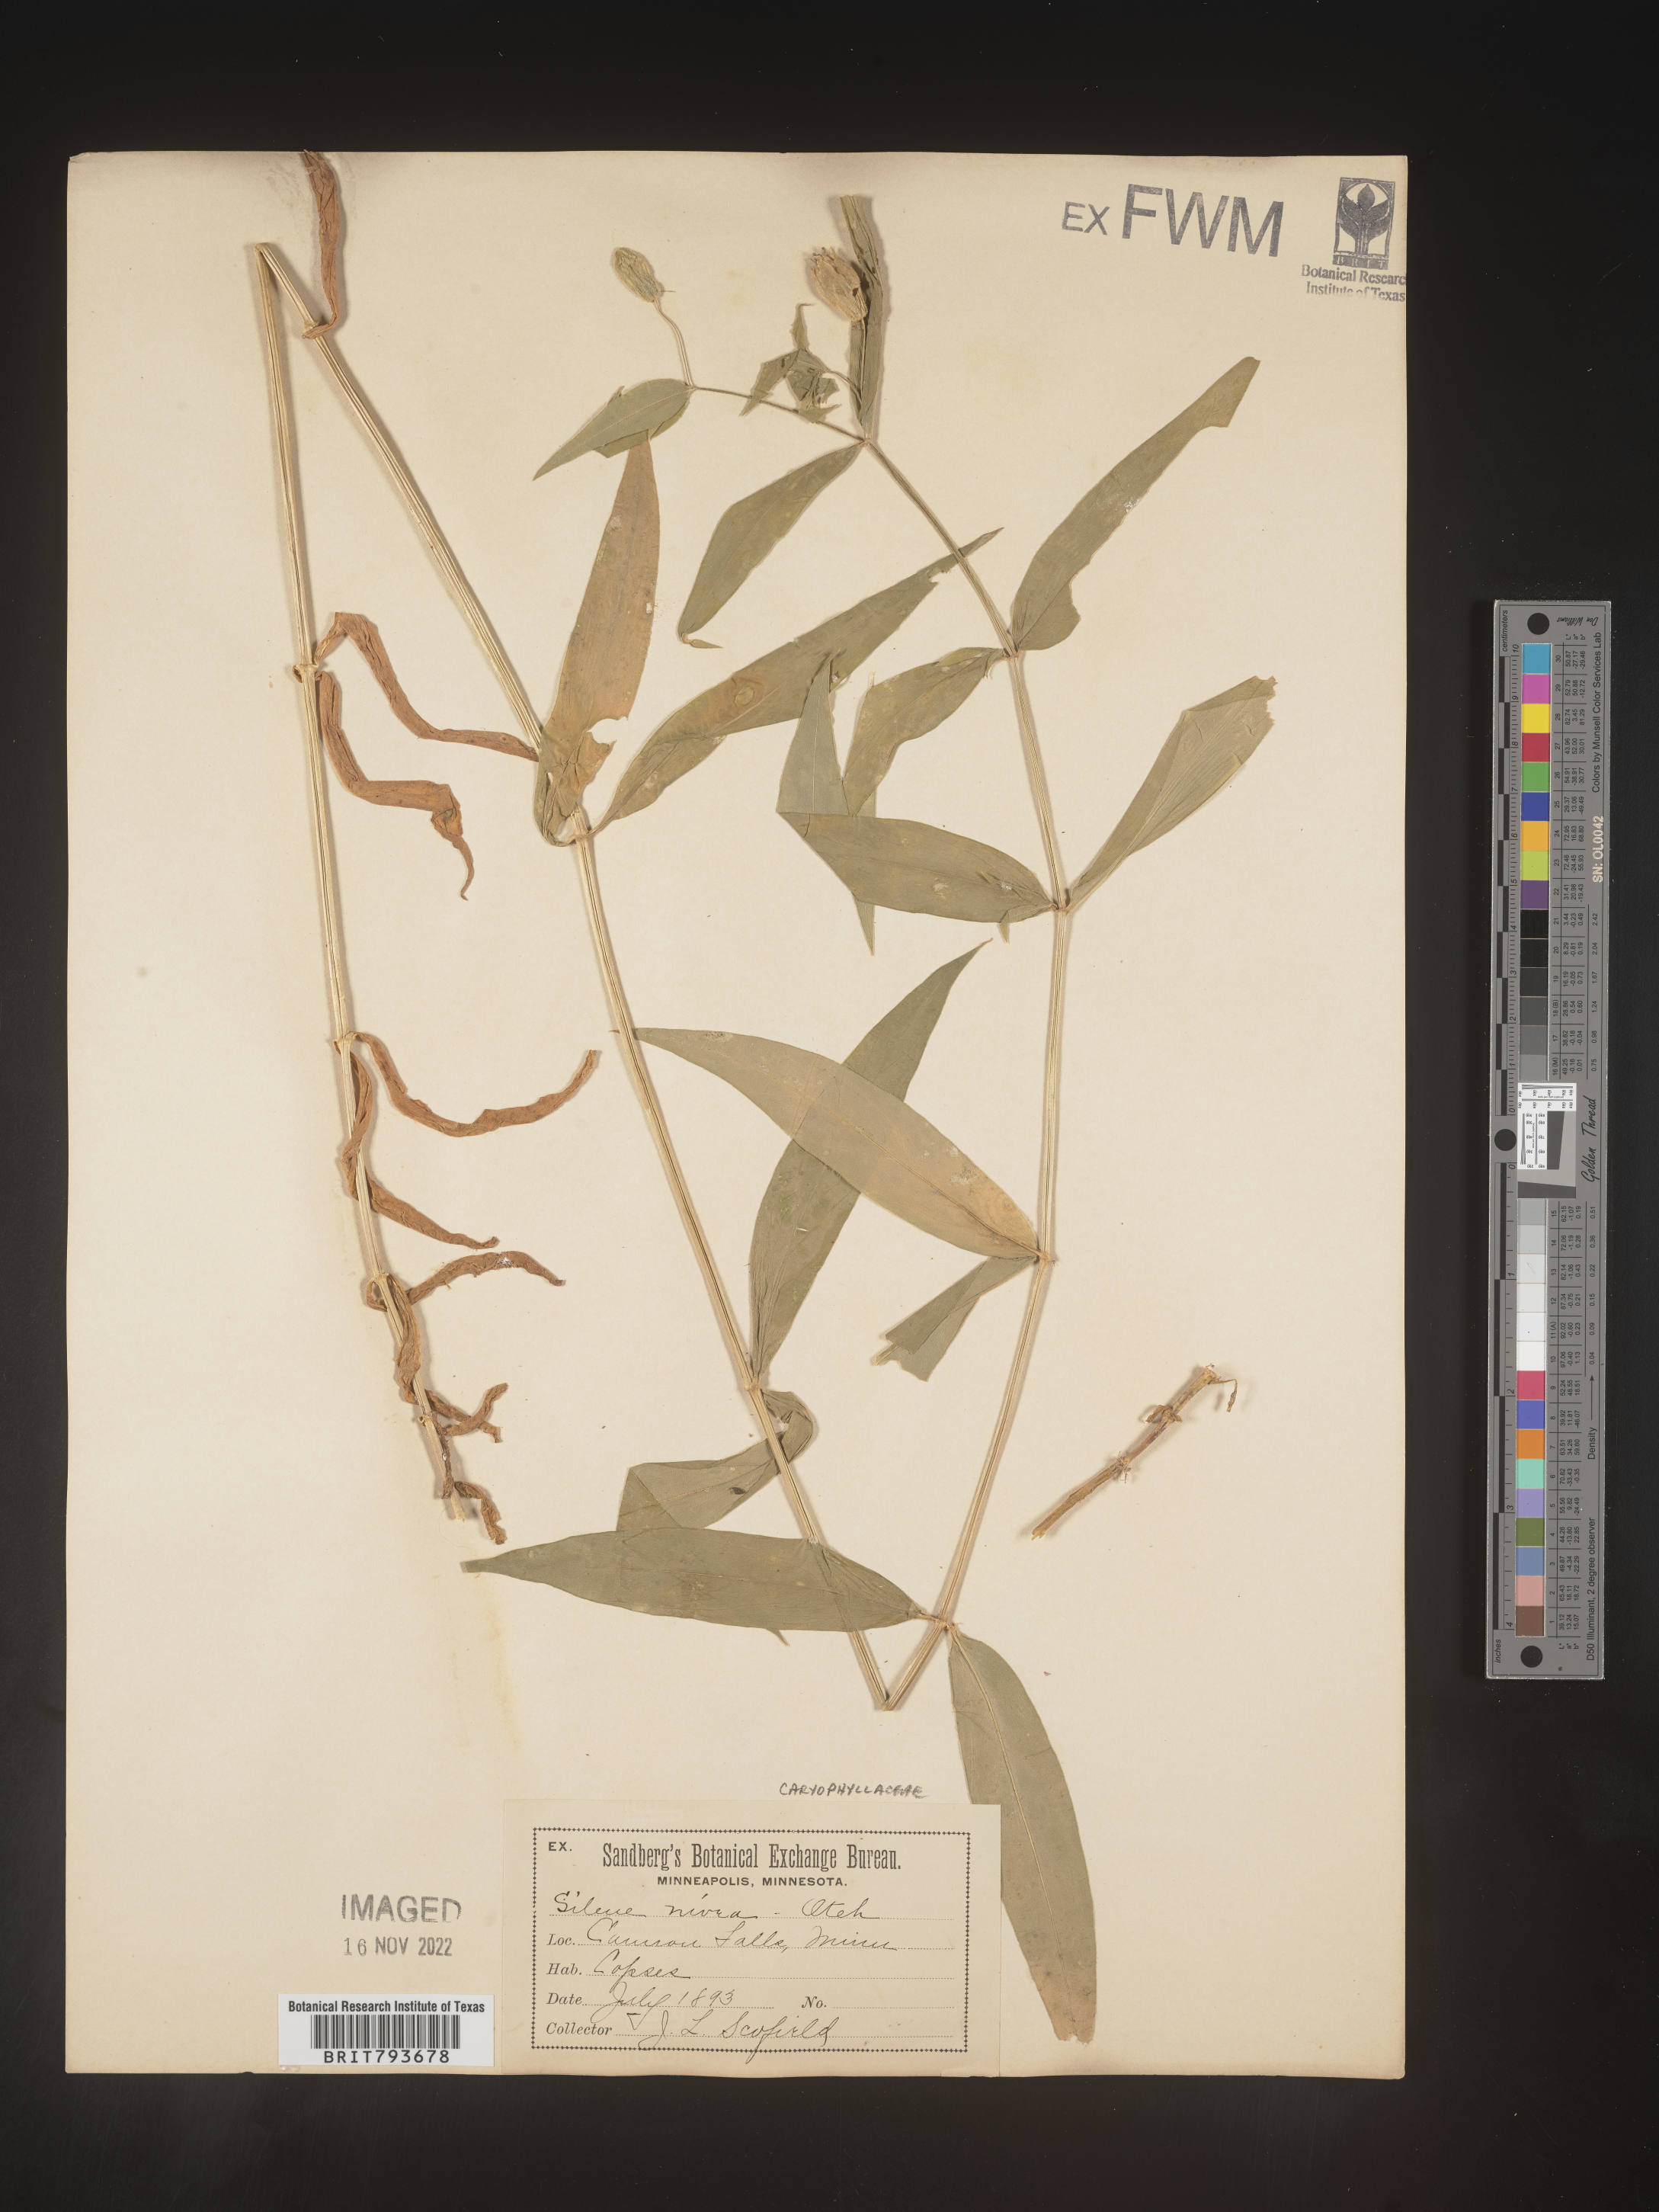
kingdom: Plantae
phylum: Tracheophyta
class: Magnoliopsida
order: Caryophyllales
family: Caryophyllaceae
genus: Silene
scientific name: Silene nivea
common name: Snowy campion
